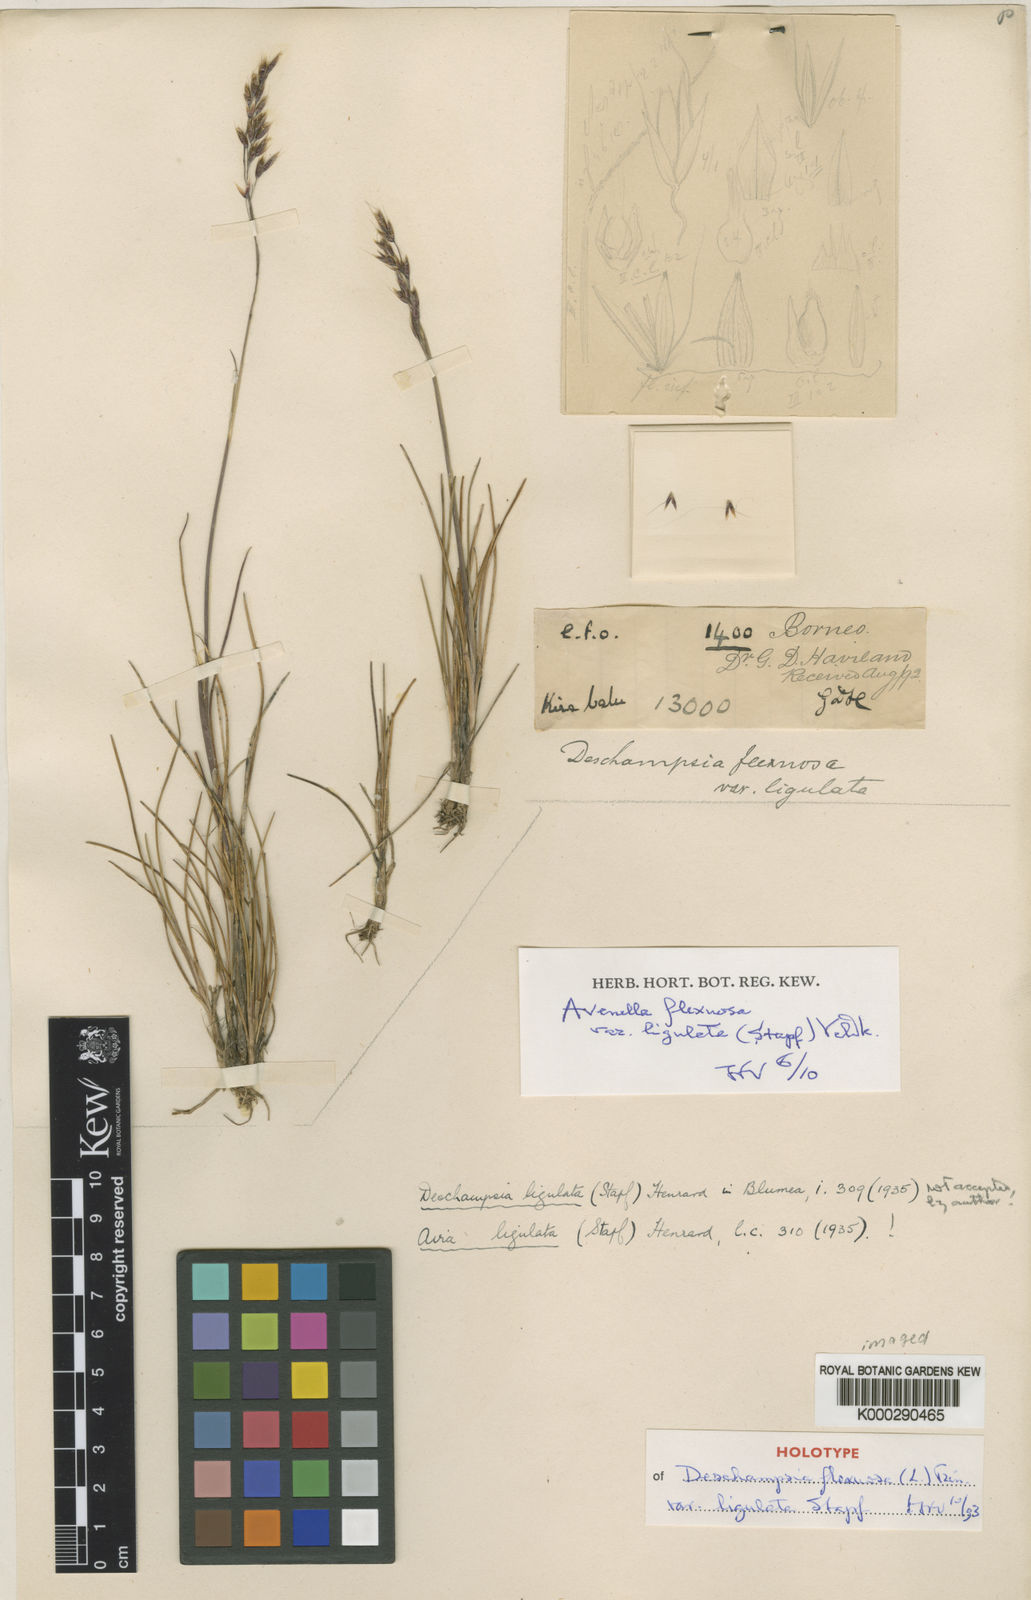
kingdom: Plantae
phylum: Tracheophyta
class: Liliopsida
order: Poales
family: Poaceae
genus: Avenella
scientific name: Avenella flexuosa
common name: Wavy hairgrass
